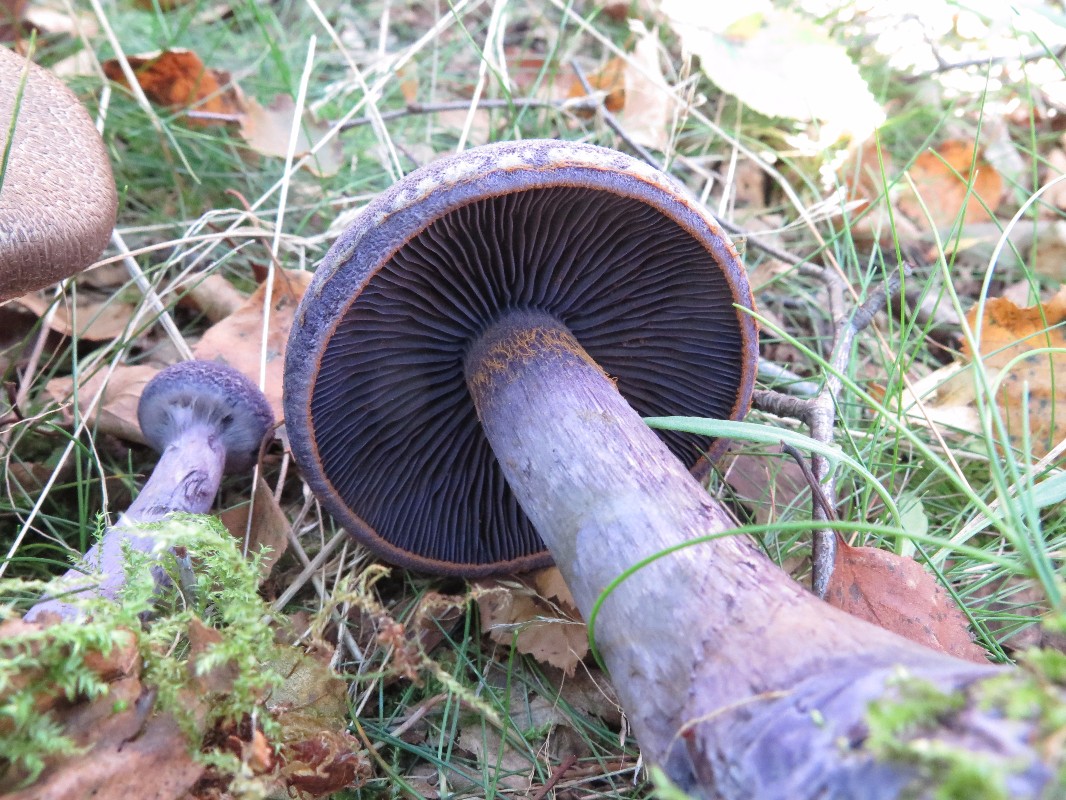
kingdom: Fungi
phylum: Basidiomycota
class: Agaricomycetes
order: Agaricales
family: Cortinariaceae
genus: Cortinarius
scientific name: Cortinarius violaceus
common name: mørkviolet slørhat
